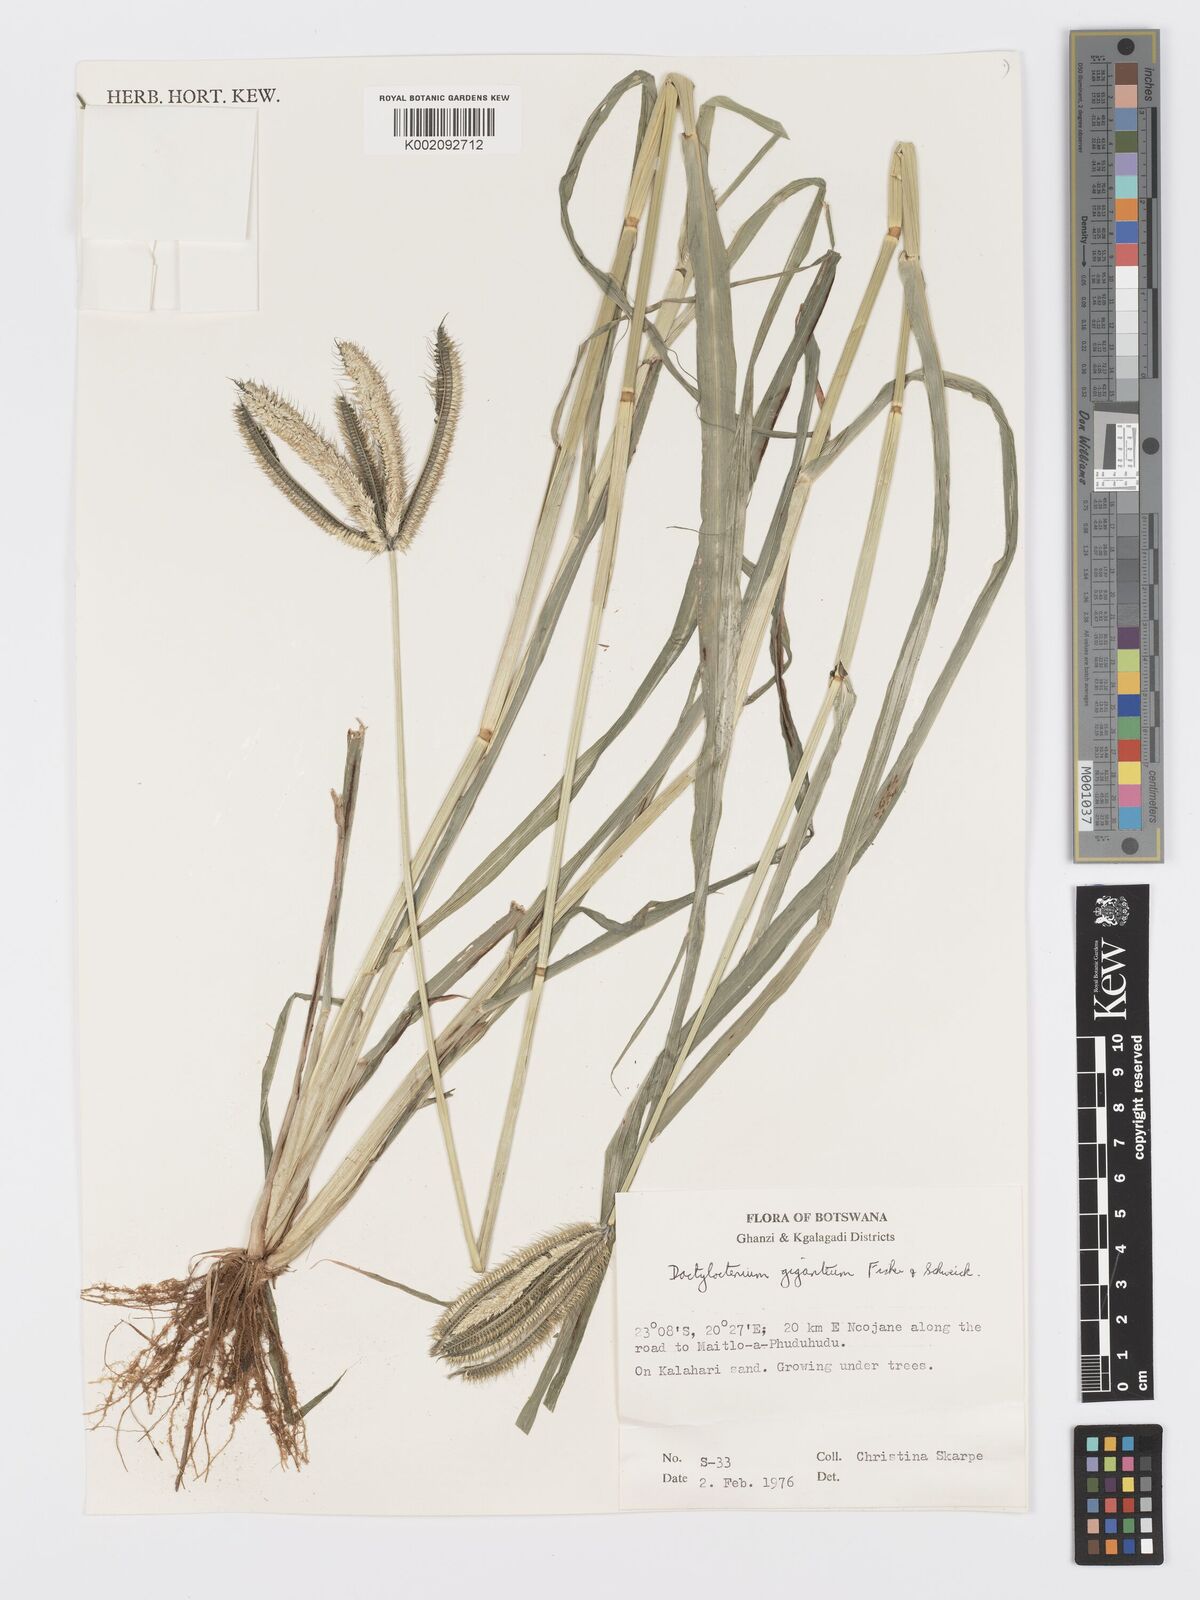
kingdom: Plantae
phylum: Tracheophyta
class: Liliopsida
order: Poales
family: Poaceae
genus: Dactyloctenium
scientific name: Dactyloctenium giganteum
